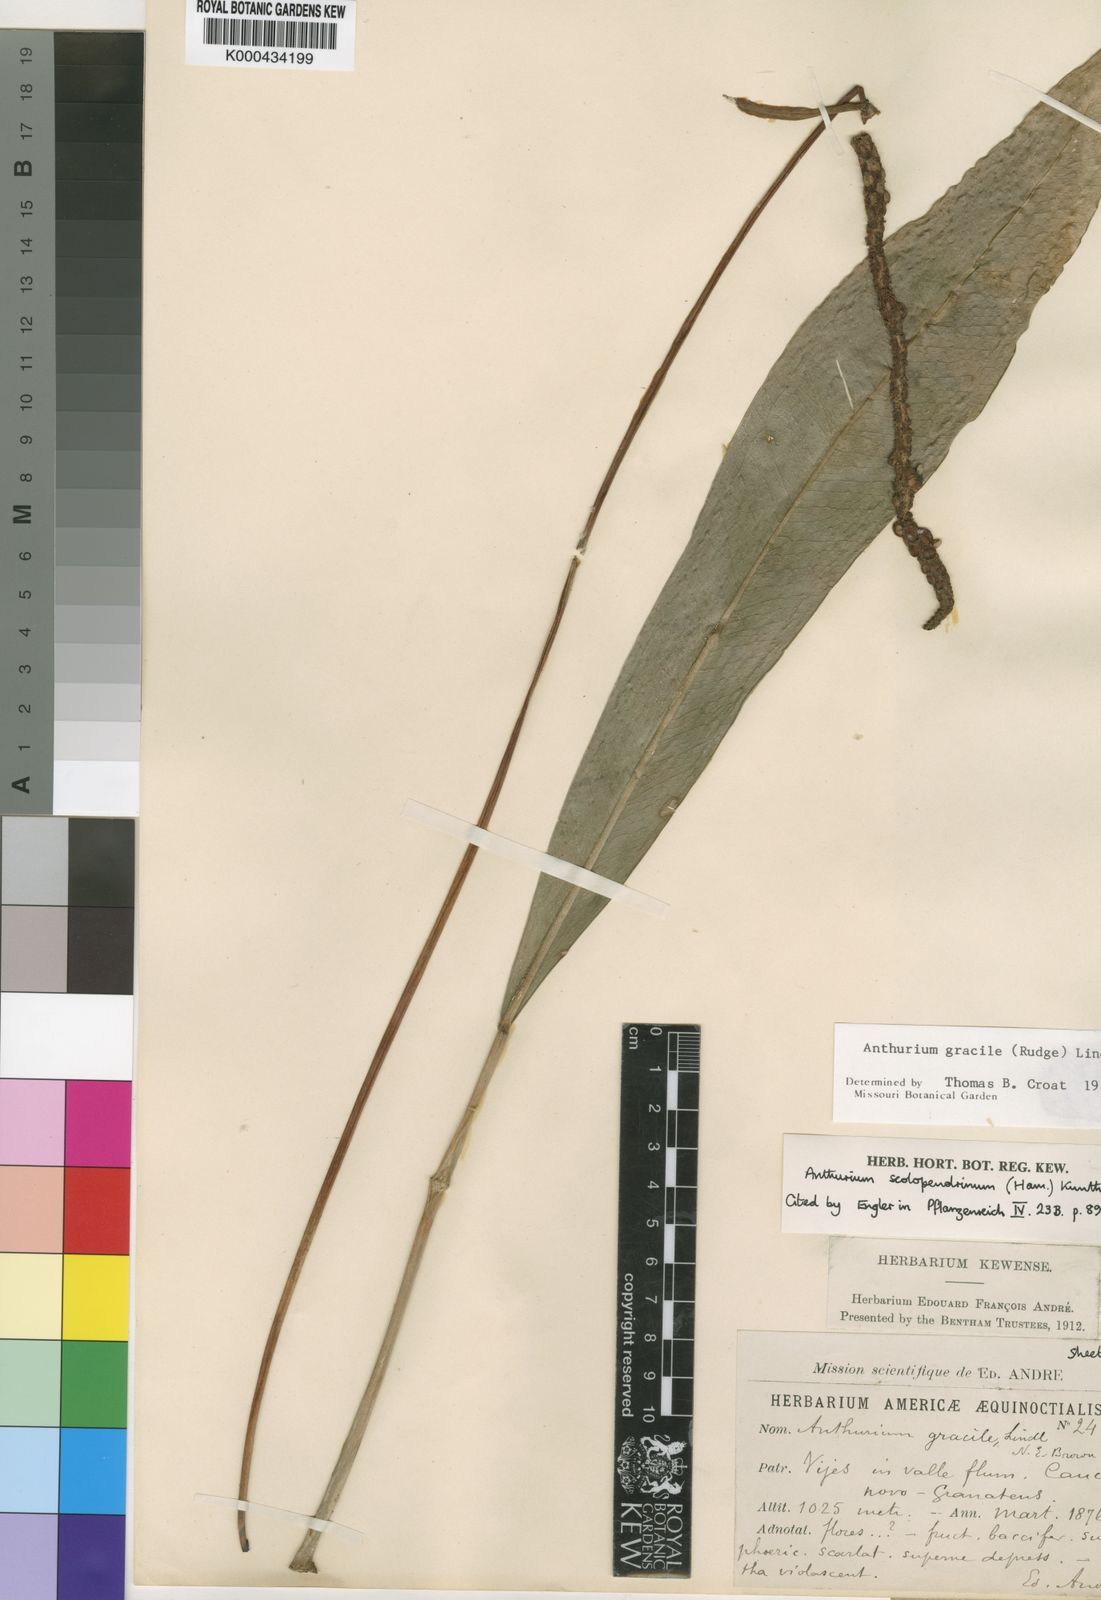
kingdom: Plantae
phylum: Tracheophyta
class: Liliopsida
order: Alismatales
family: Araceae
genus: Anthurium
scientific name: Anthurium gracile
